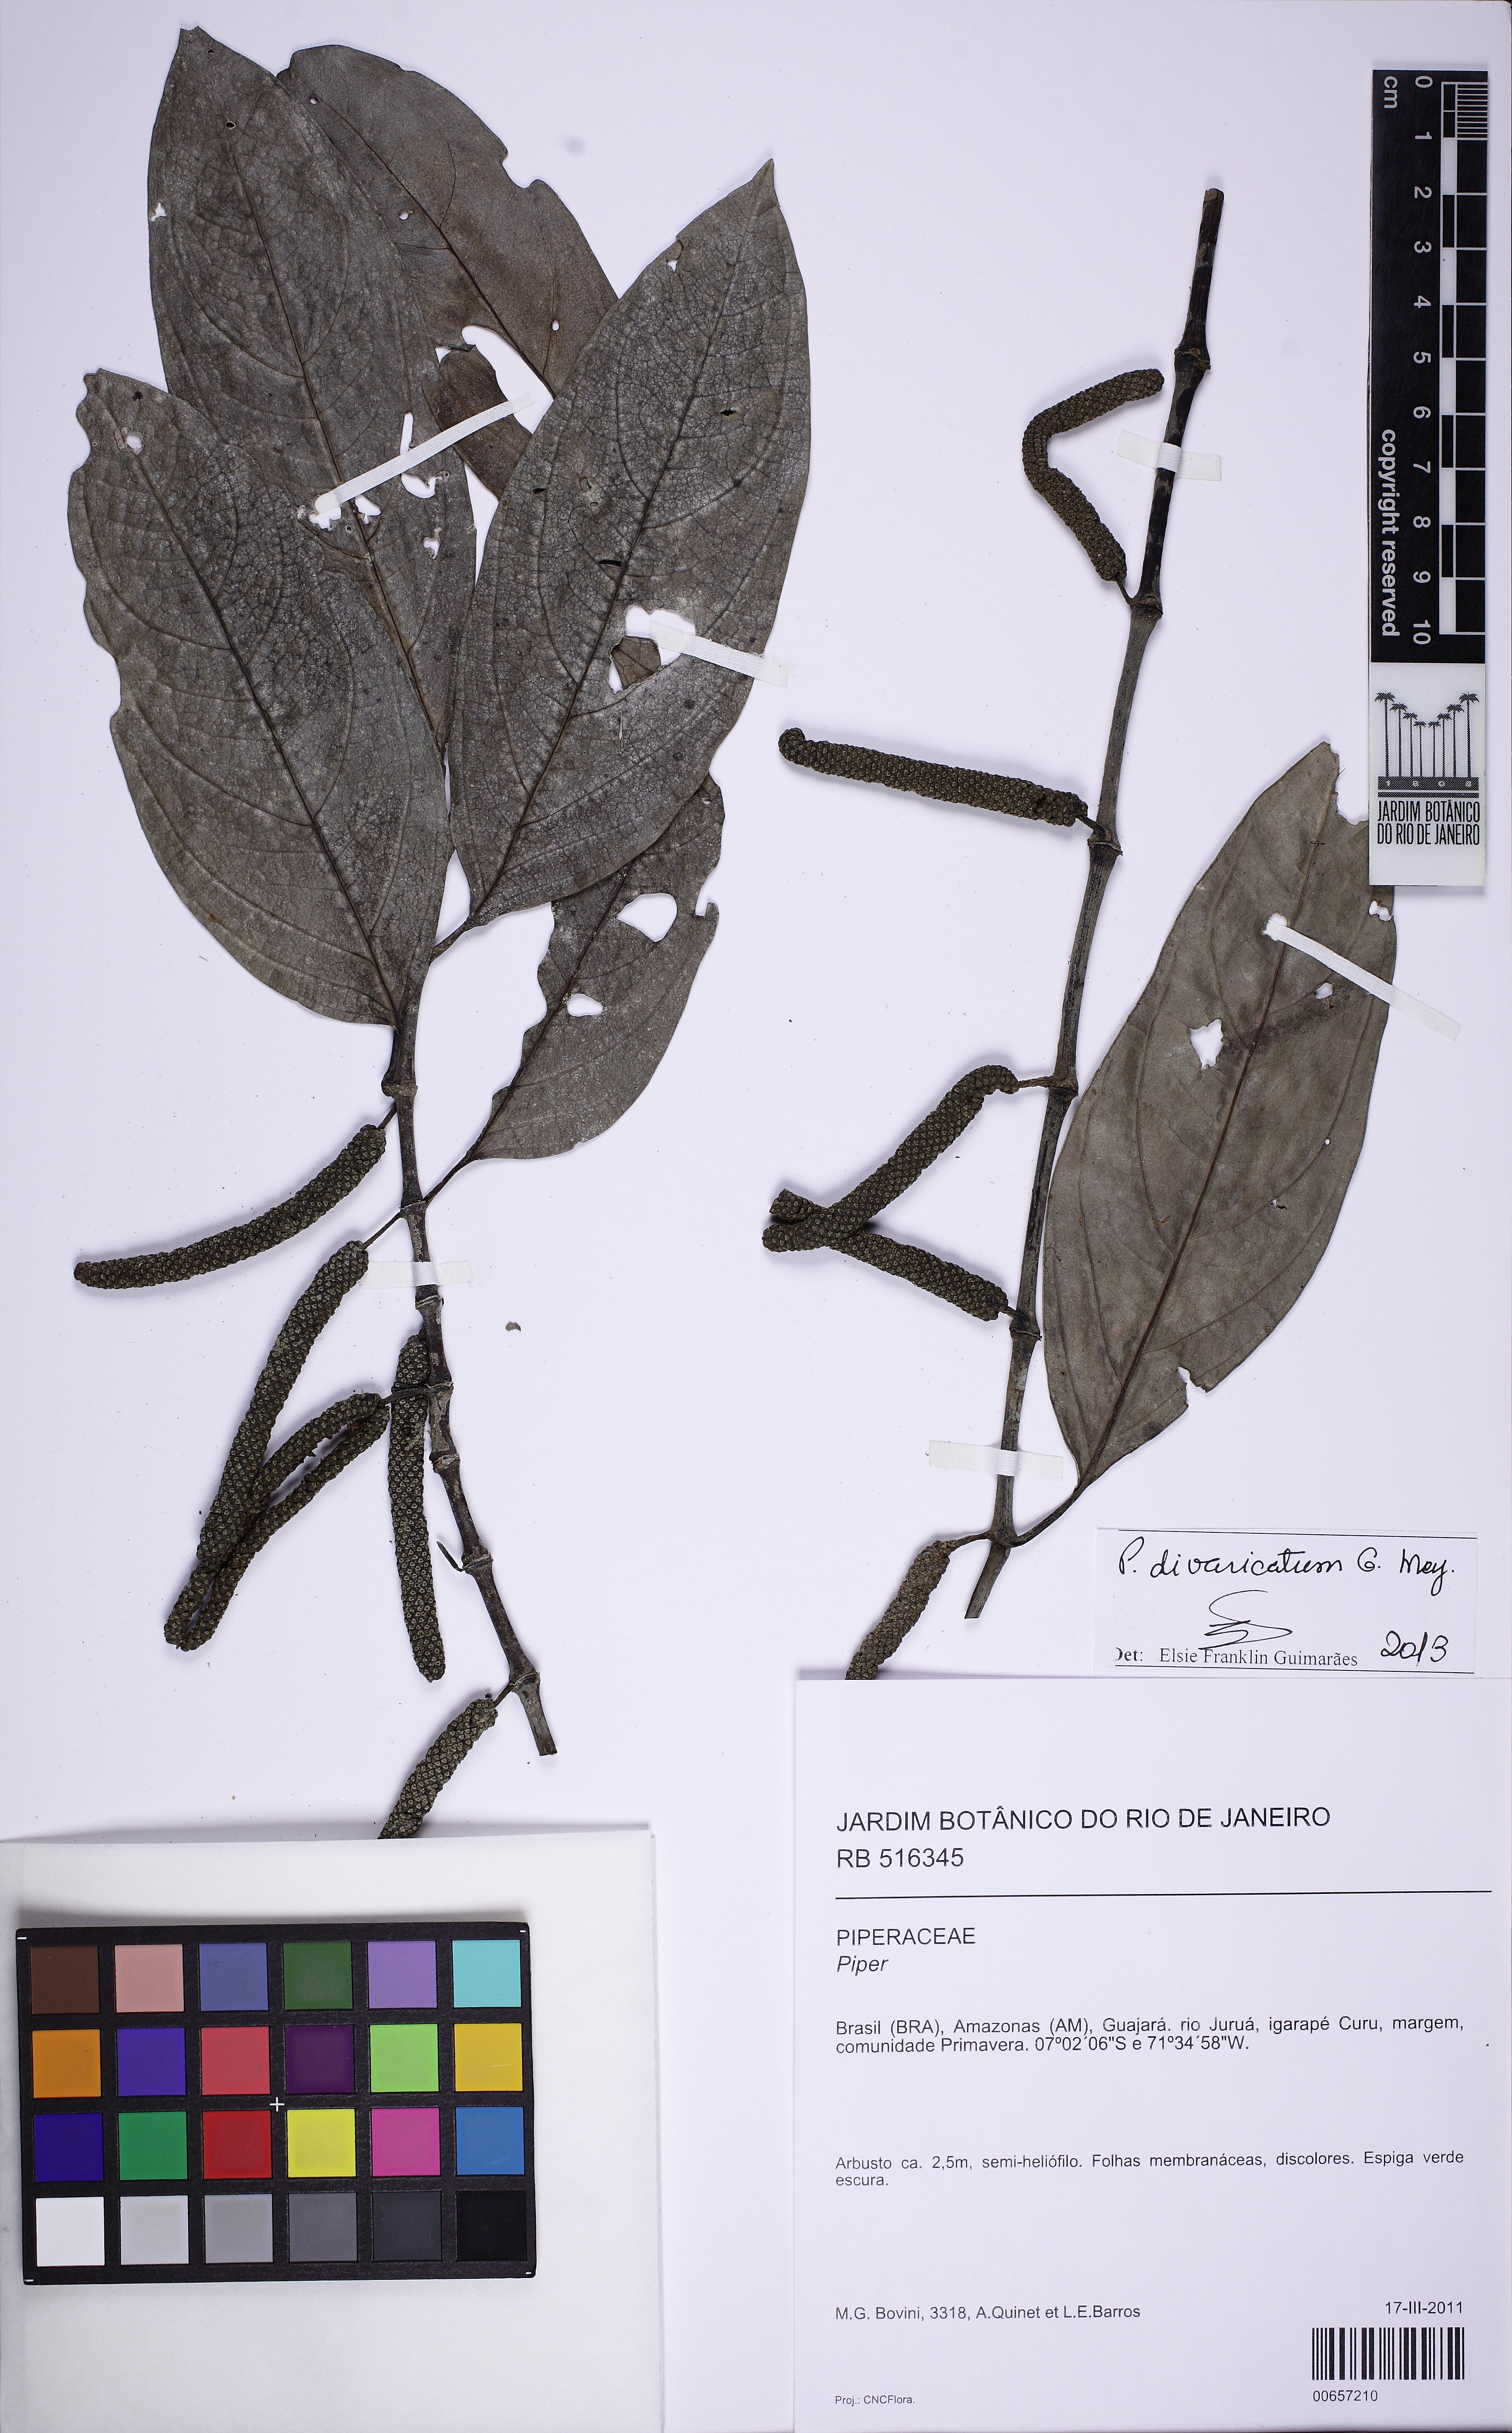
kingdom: Plantae
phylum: Tracheophyta
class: Magnoliopsida
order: Piperales
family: Piperaceae
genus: Piper
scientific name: Piper divaricatum
